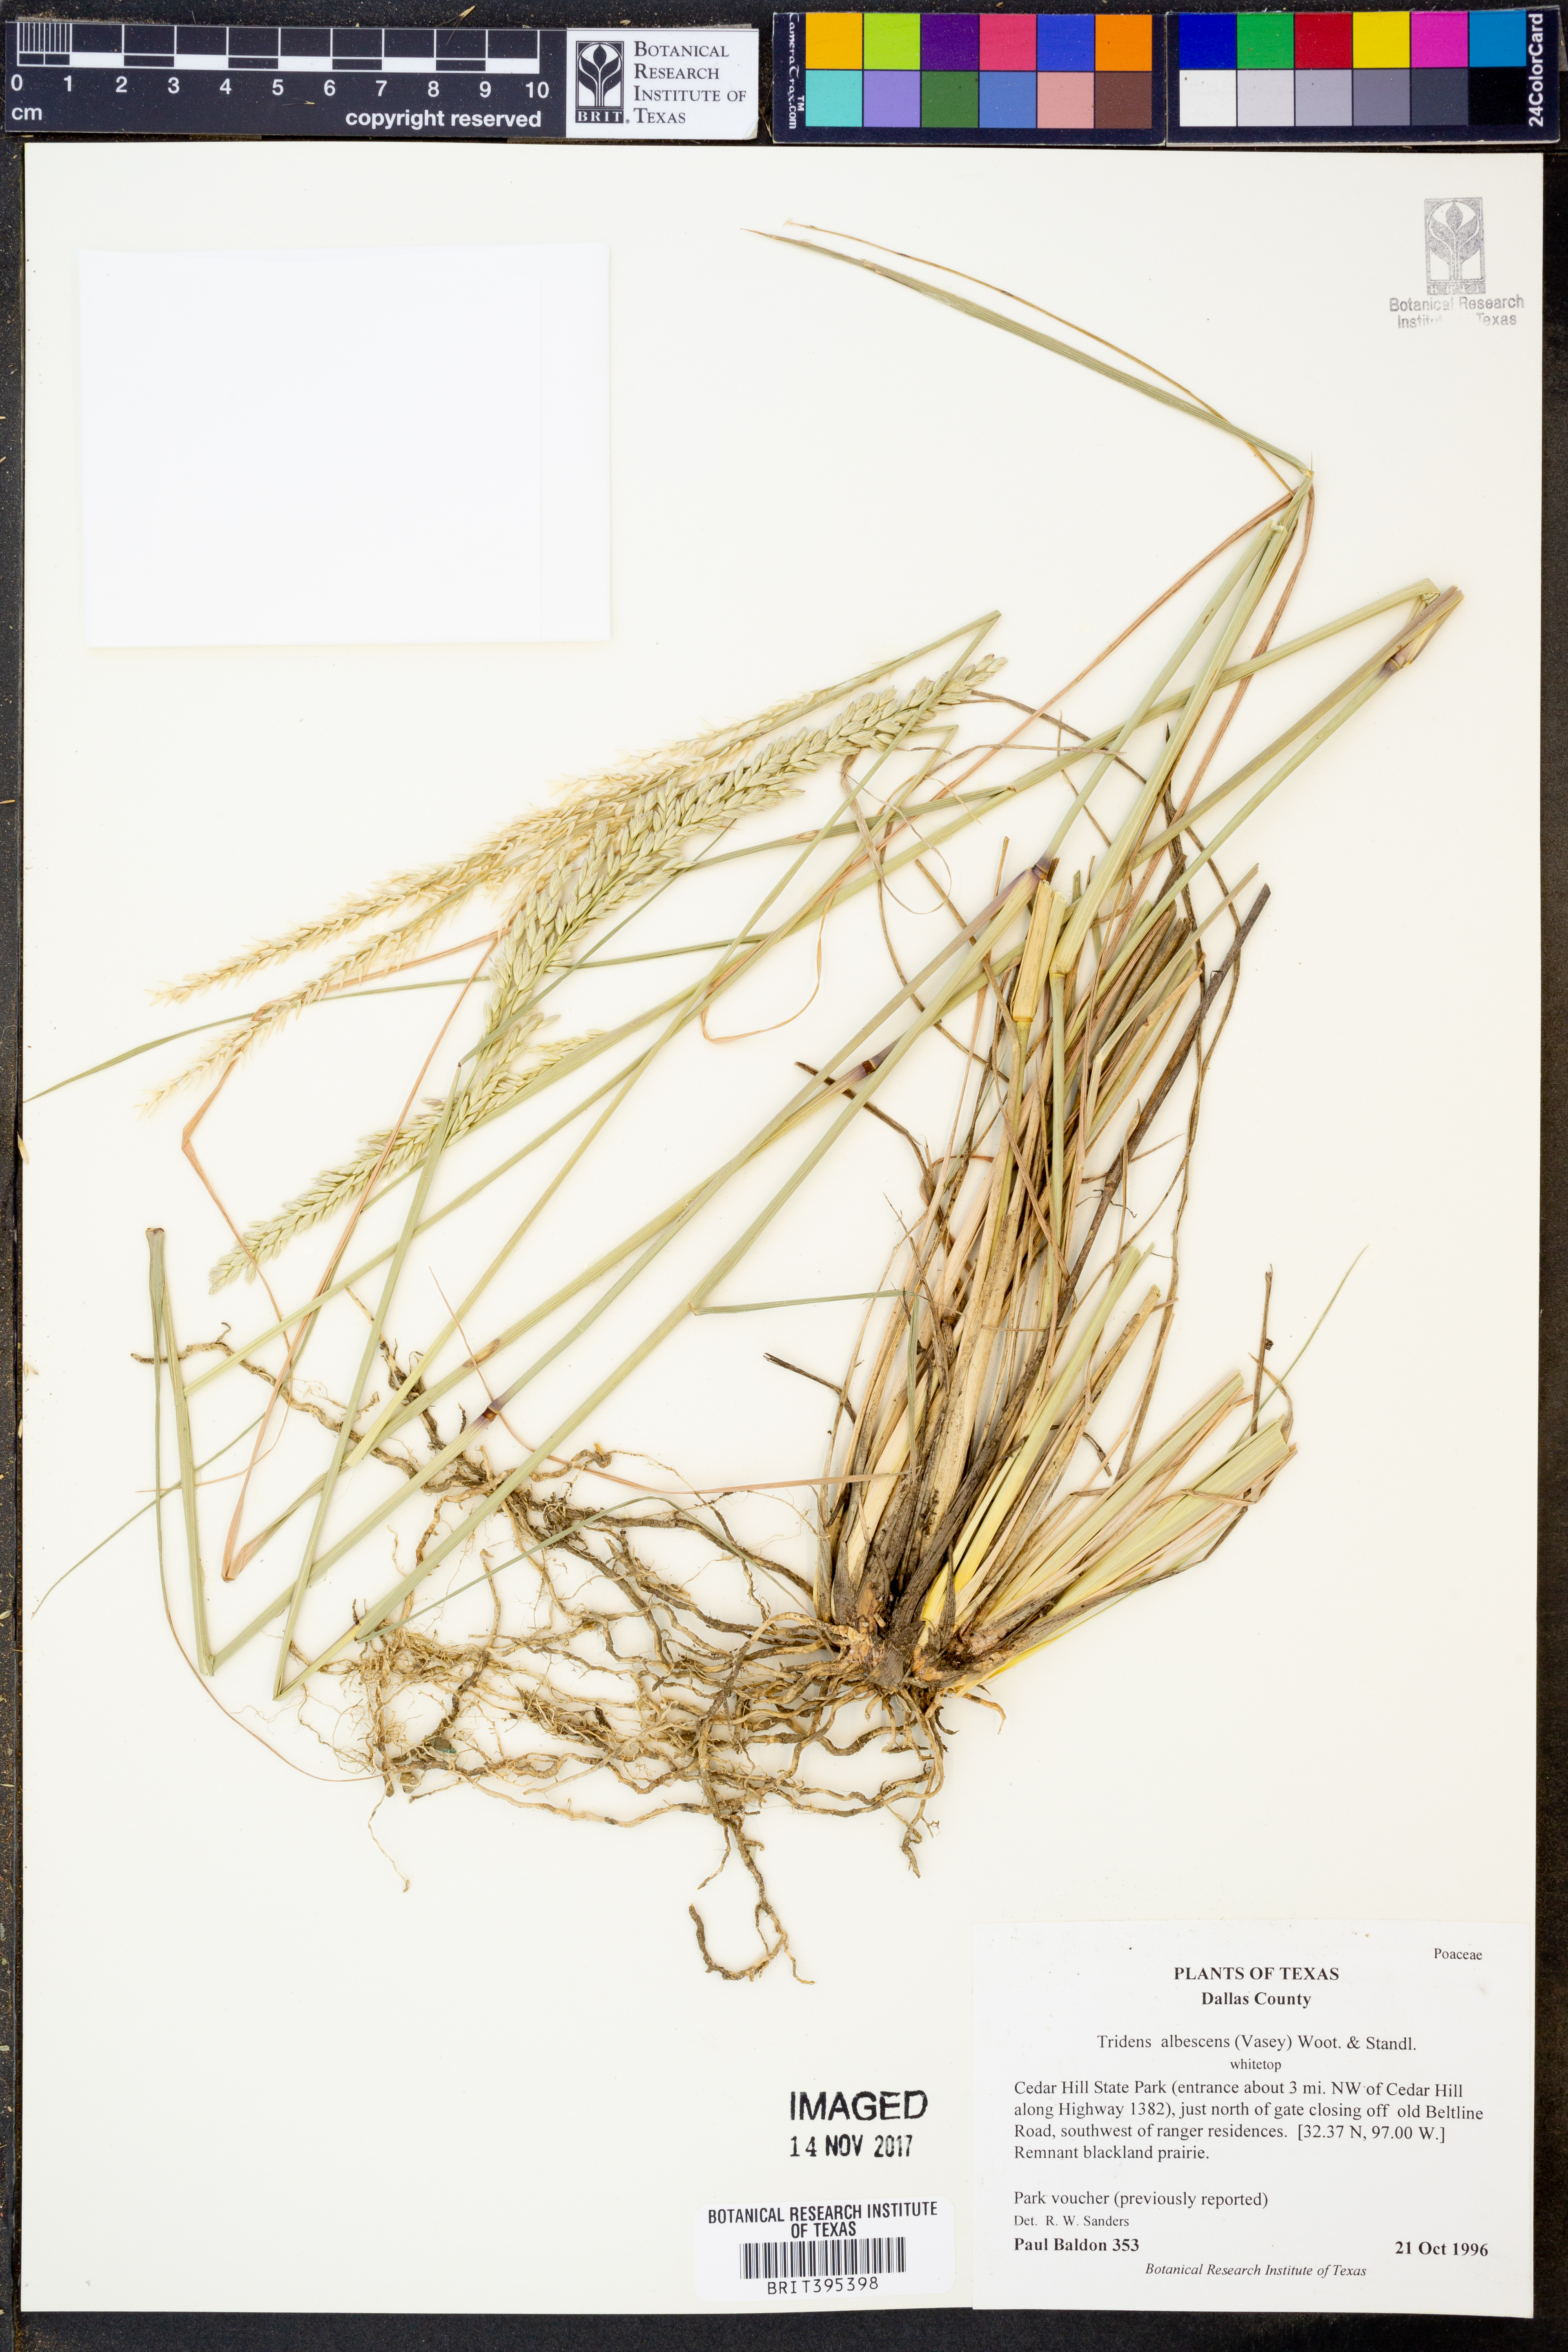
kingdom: Plantae
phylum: Tracheophyta
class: Liliopsida
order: Poales
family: Poaceae
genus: Tridens
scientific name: Tridens albescens
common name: White tridens
